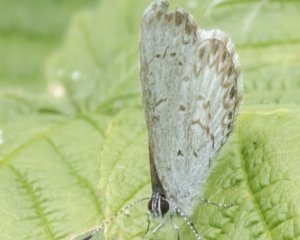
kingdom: Animalia
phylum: Arthropoda
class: Insecta
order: Lepidoptera
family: Lycaenidae
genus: Cyaniris
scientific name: Cyaniris neglecta
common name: Summer Azure
